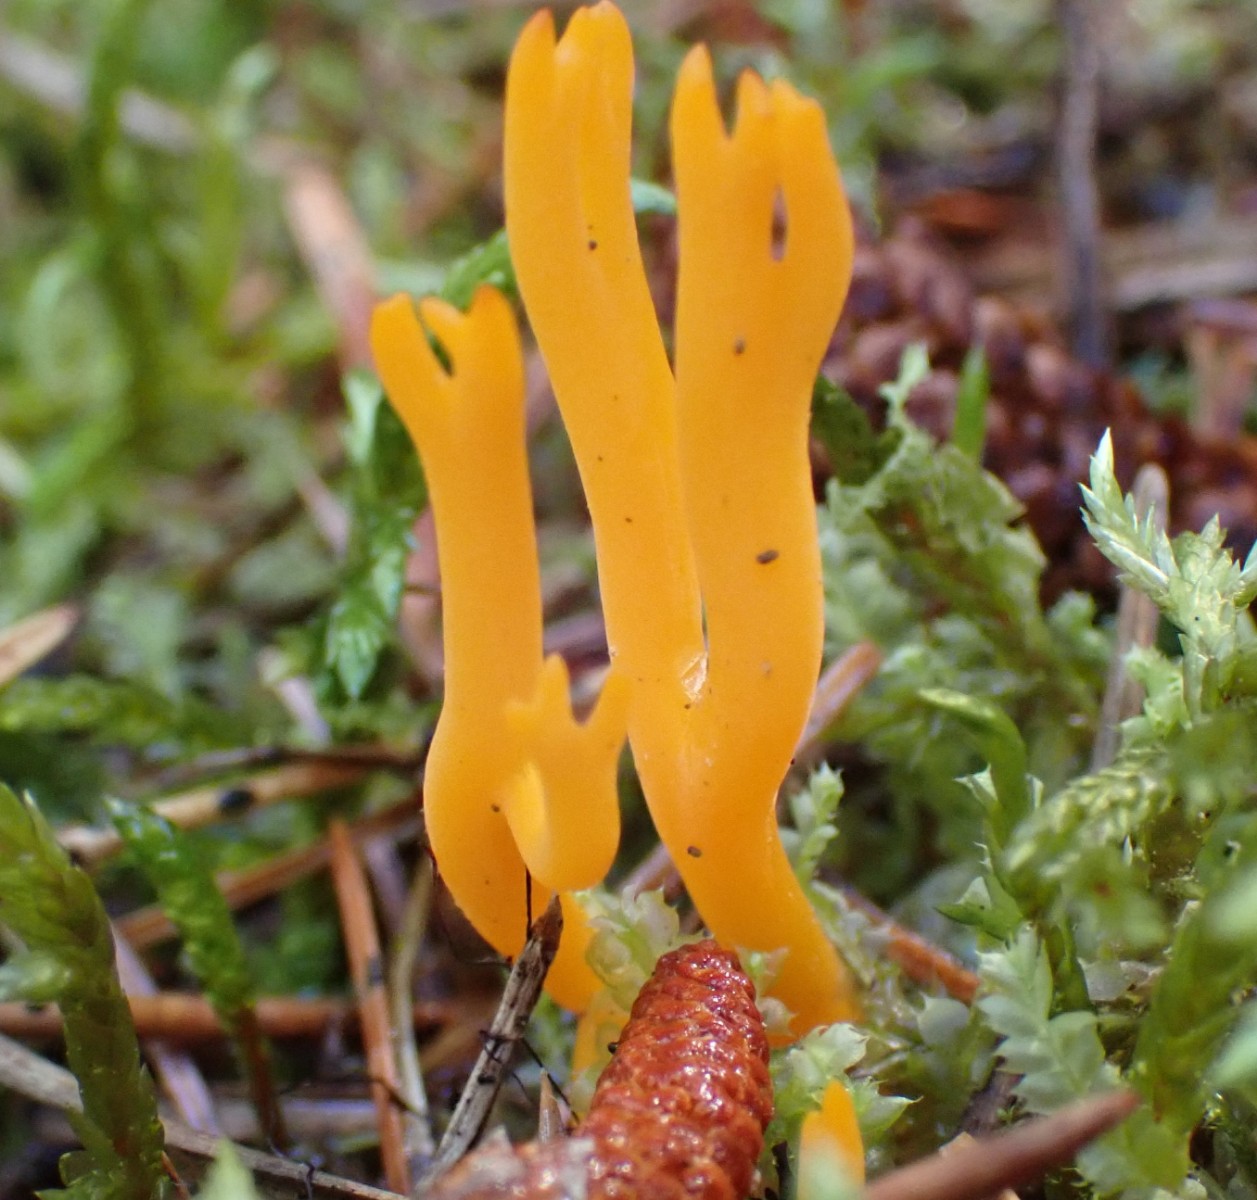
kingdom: Fungi
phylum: Basidiomycota
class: Dacrymycetes
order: Dacrymycetales
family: Dacrymycetaceae
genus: Calocera
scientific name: Calocera viscosa
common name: almindelig guldgaffel
